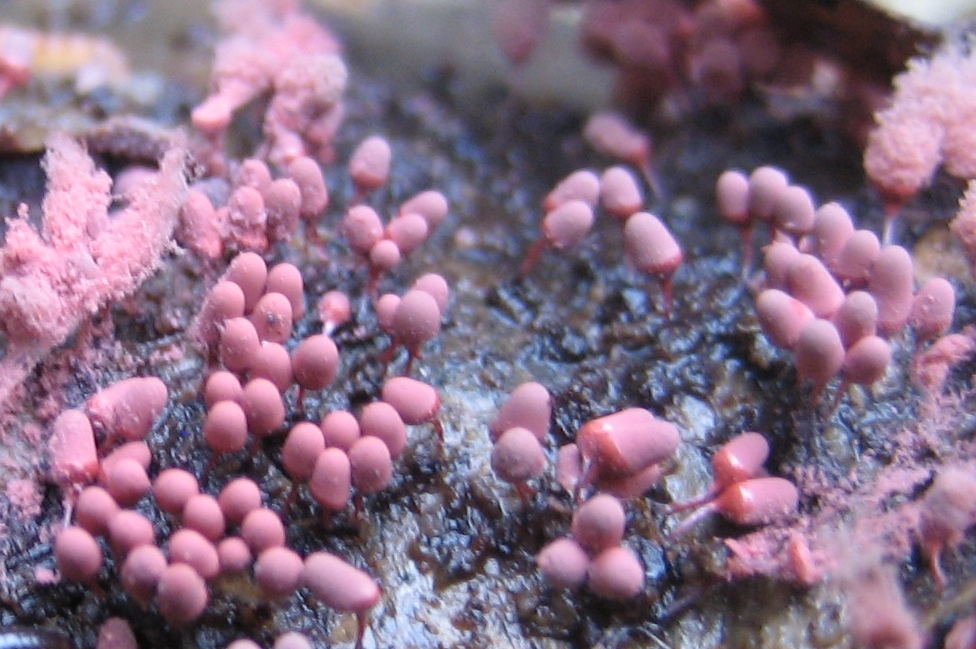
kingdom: Protozoa
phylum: Amoebozoa
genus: Arcyria
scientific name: Arcyria
